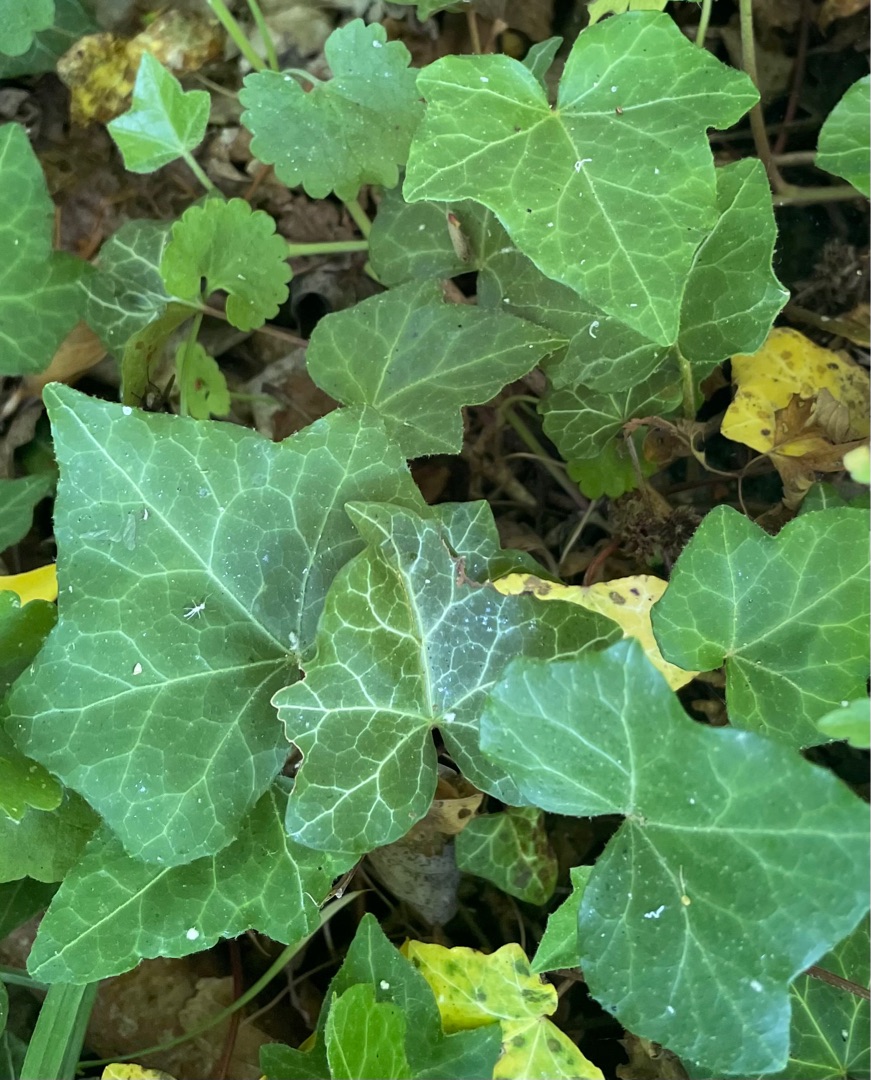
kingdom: Plantae
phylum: Tracheophyta
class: Magnoliopsida
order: Apiales
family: Araliaceae
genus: Hedera
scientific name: Hedera helix
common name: Vedbend
